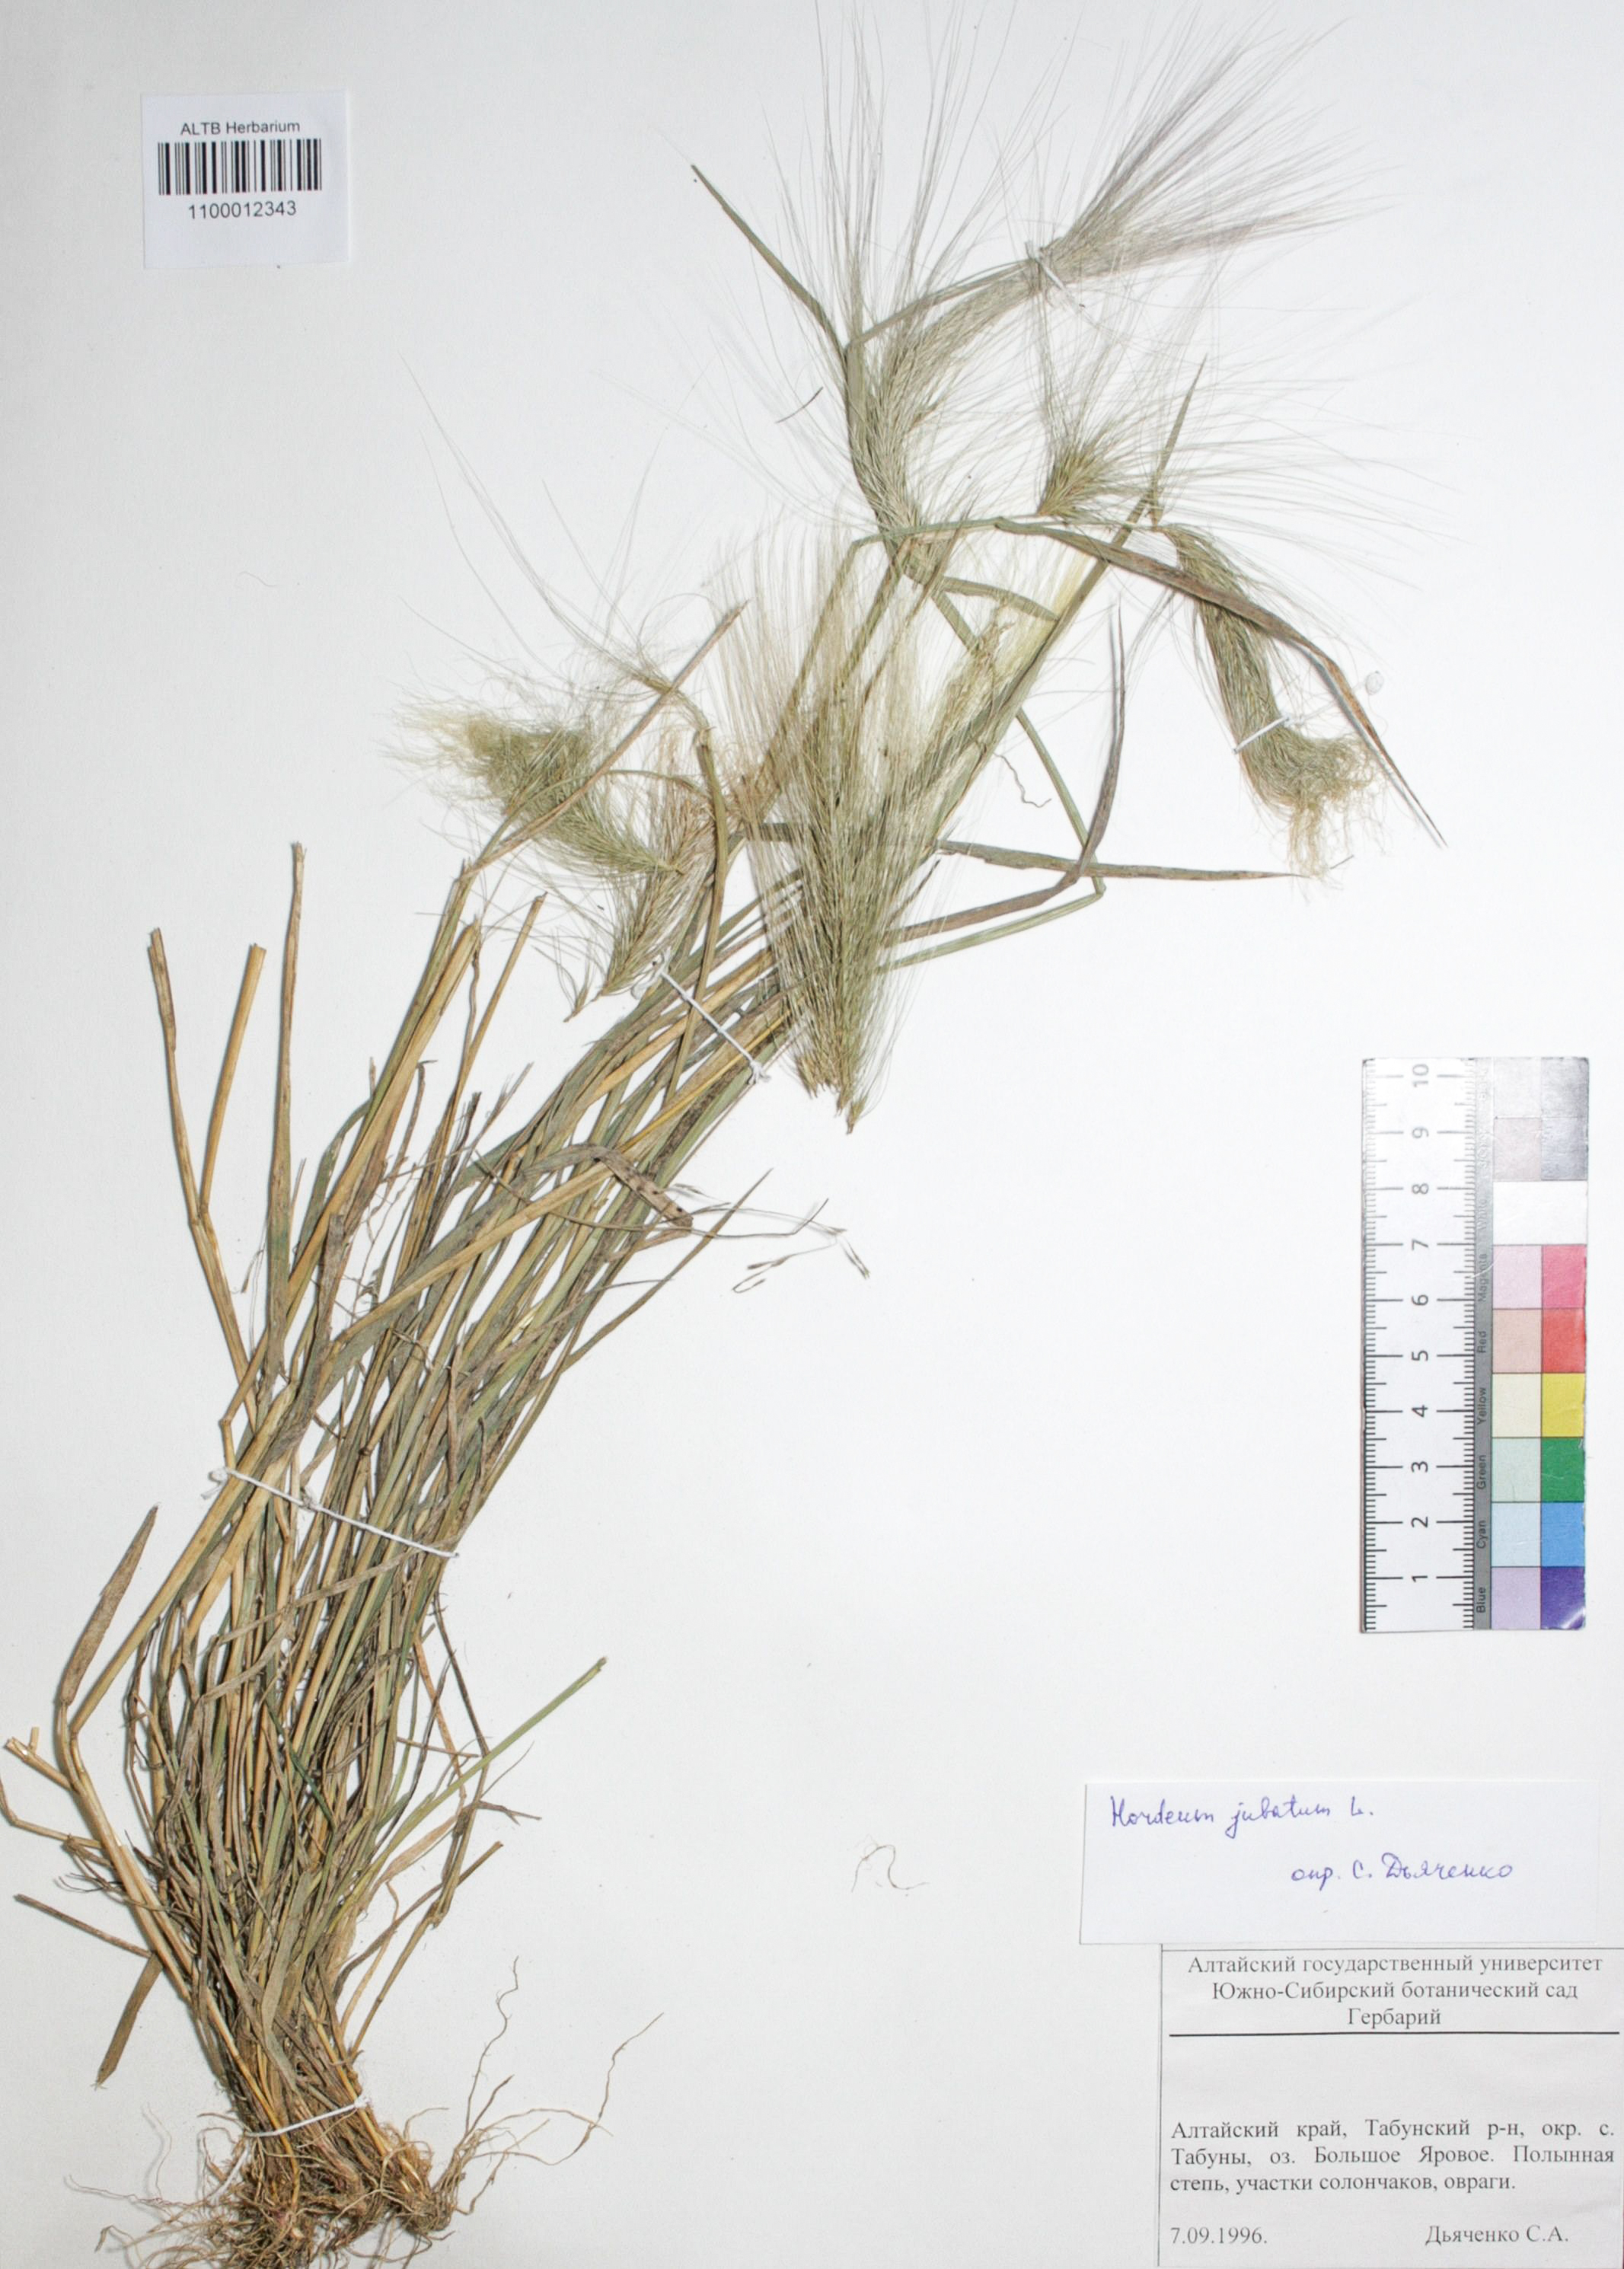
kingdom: Plantae
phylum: Tracheophyta
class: Liliopsida
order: Poales
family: Poaceae
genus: Hordeum
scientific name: Hordeum jubatum
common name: Foxtail barley
